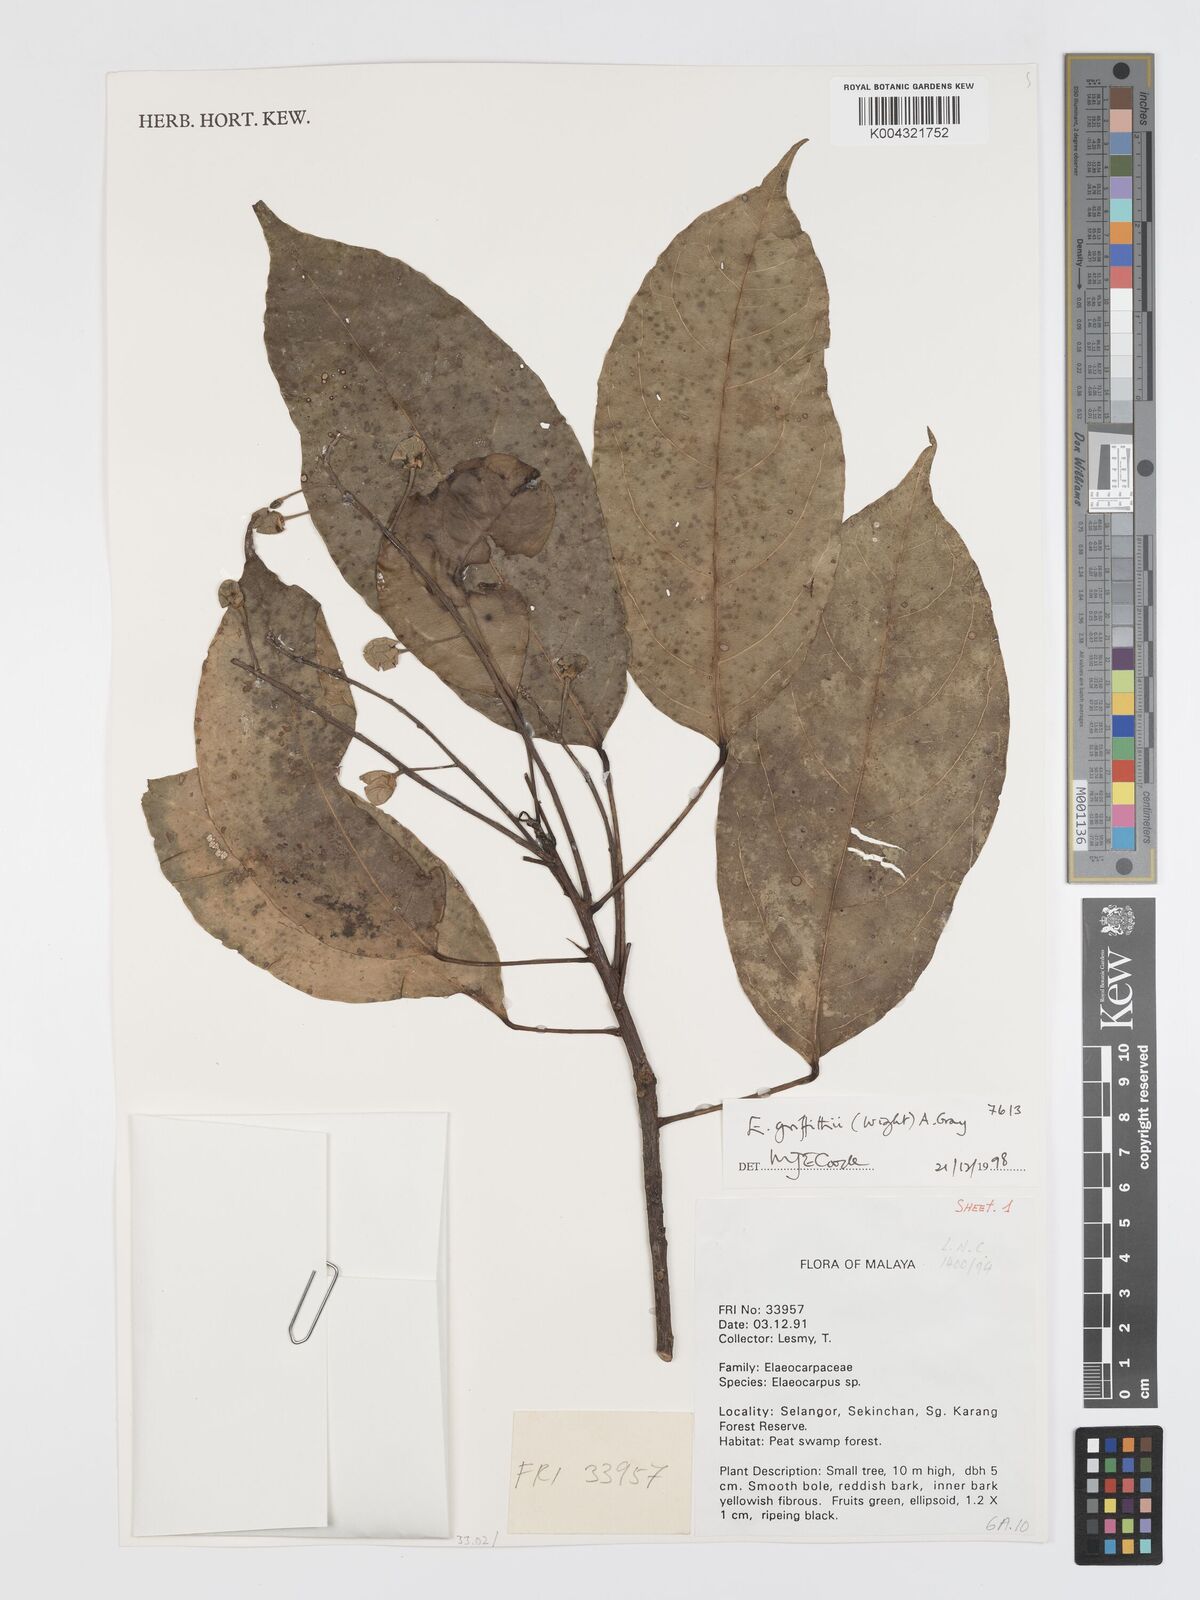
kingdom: Plantae
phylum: Tracheophyta
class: Magnoliopsida
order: Oxalidales
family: Elaeocarpaceae
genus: Elaeocarpus
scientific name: Elaeocarpus griffithii
